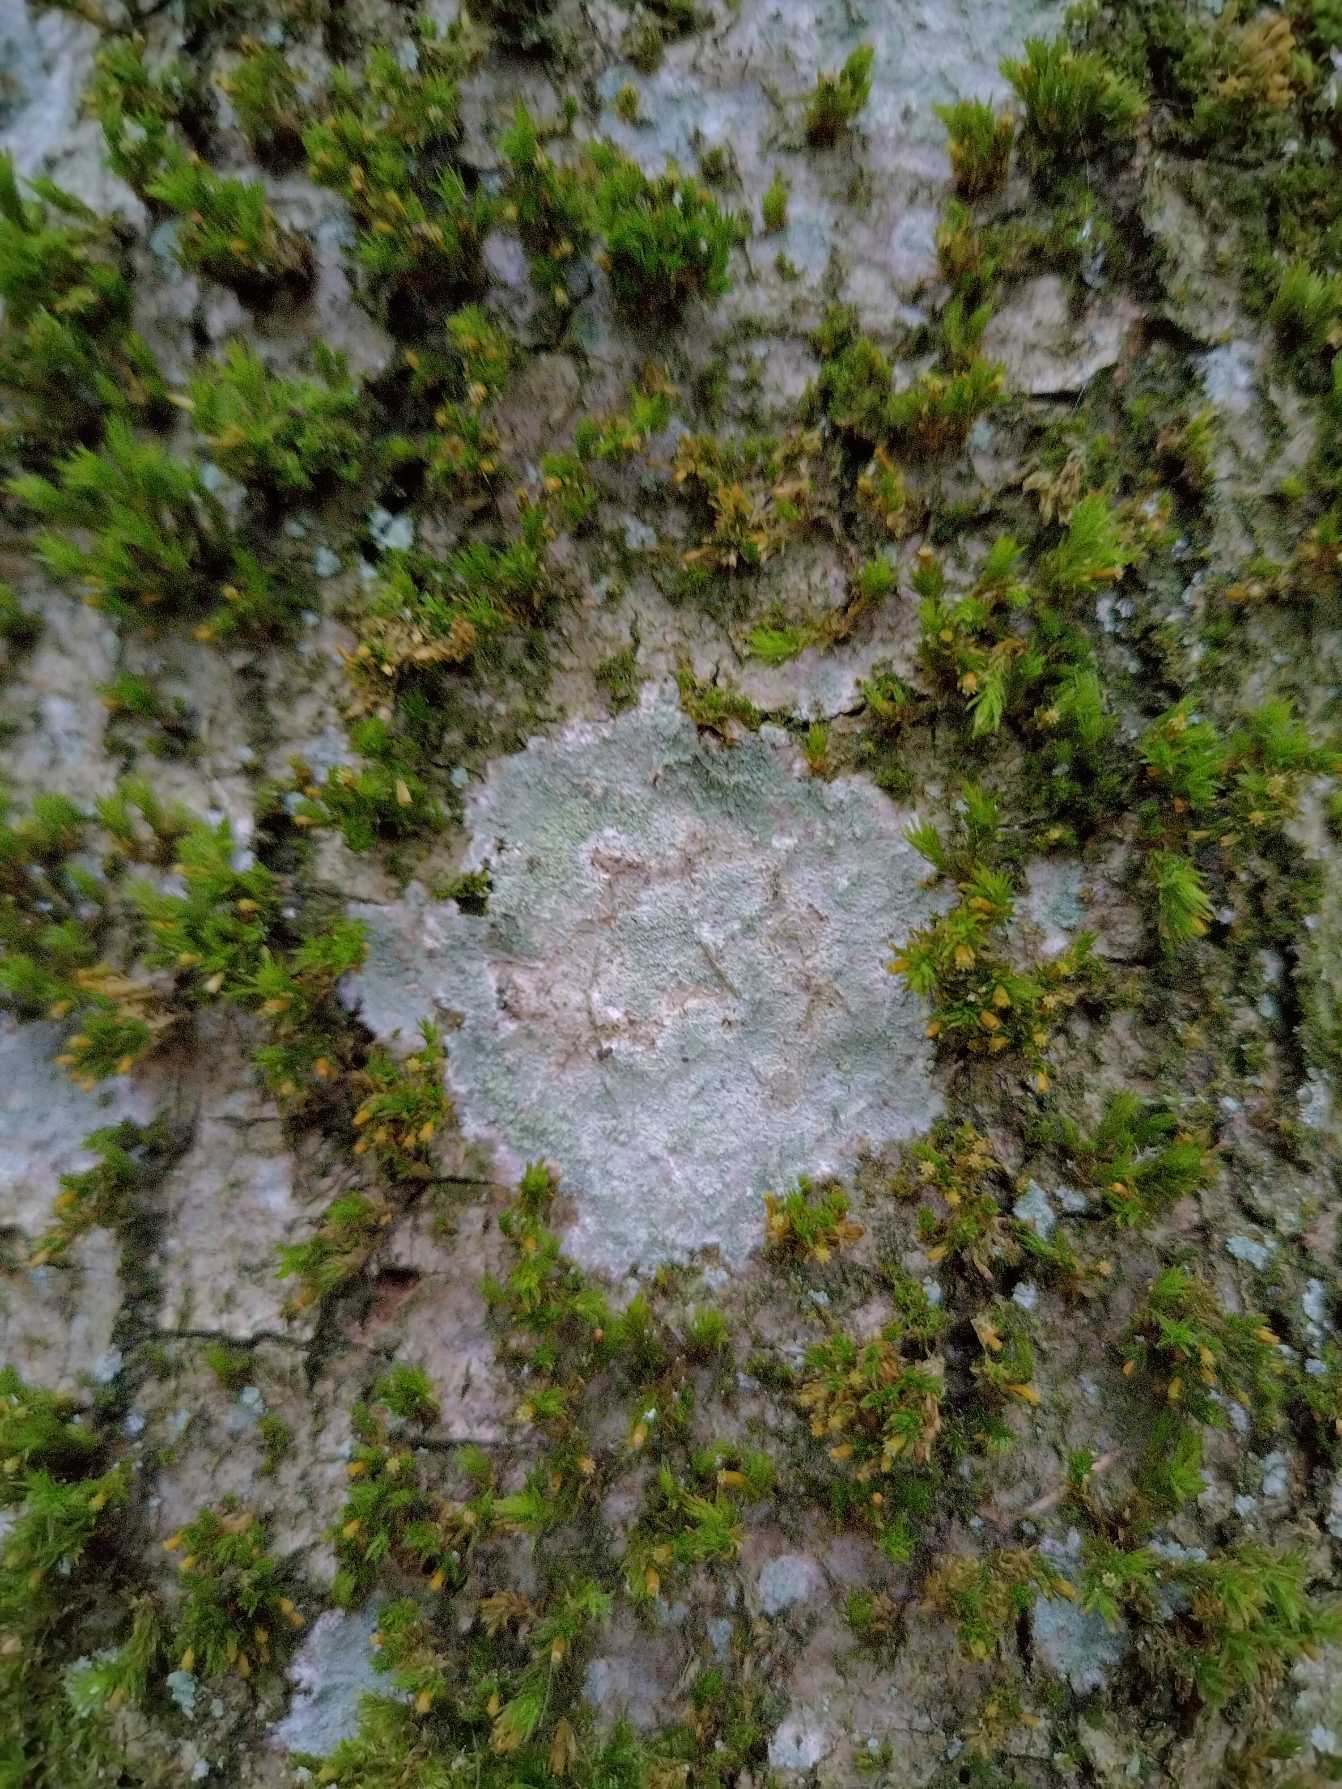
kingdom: Fungi
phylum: Ascomycota
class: Lecanoromycetes
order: Ostropales
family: Phlyctidaceae
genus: Phlyctis
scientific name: Phlyctis argena
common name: Almindelig sølvlav
